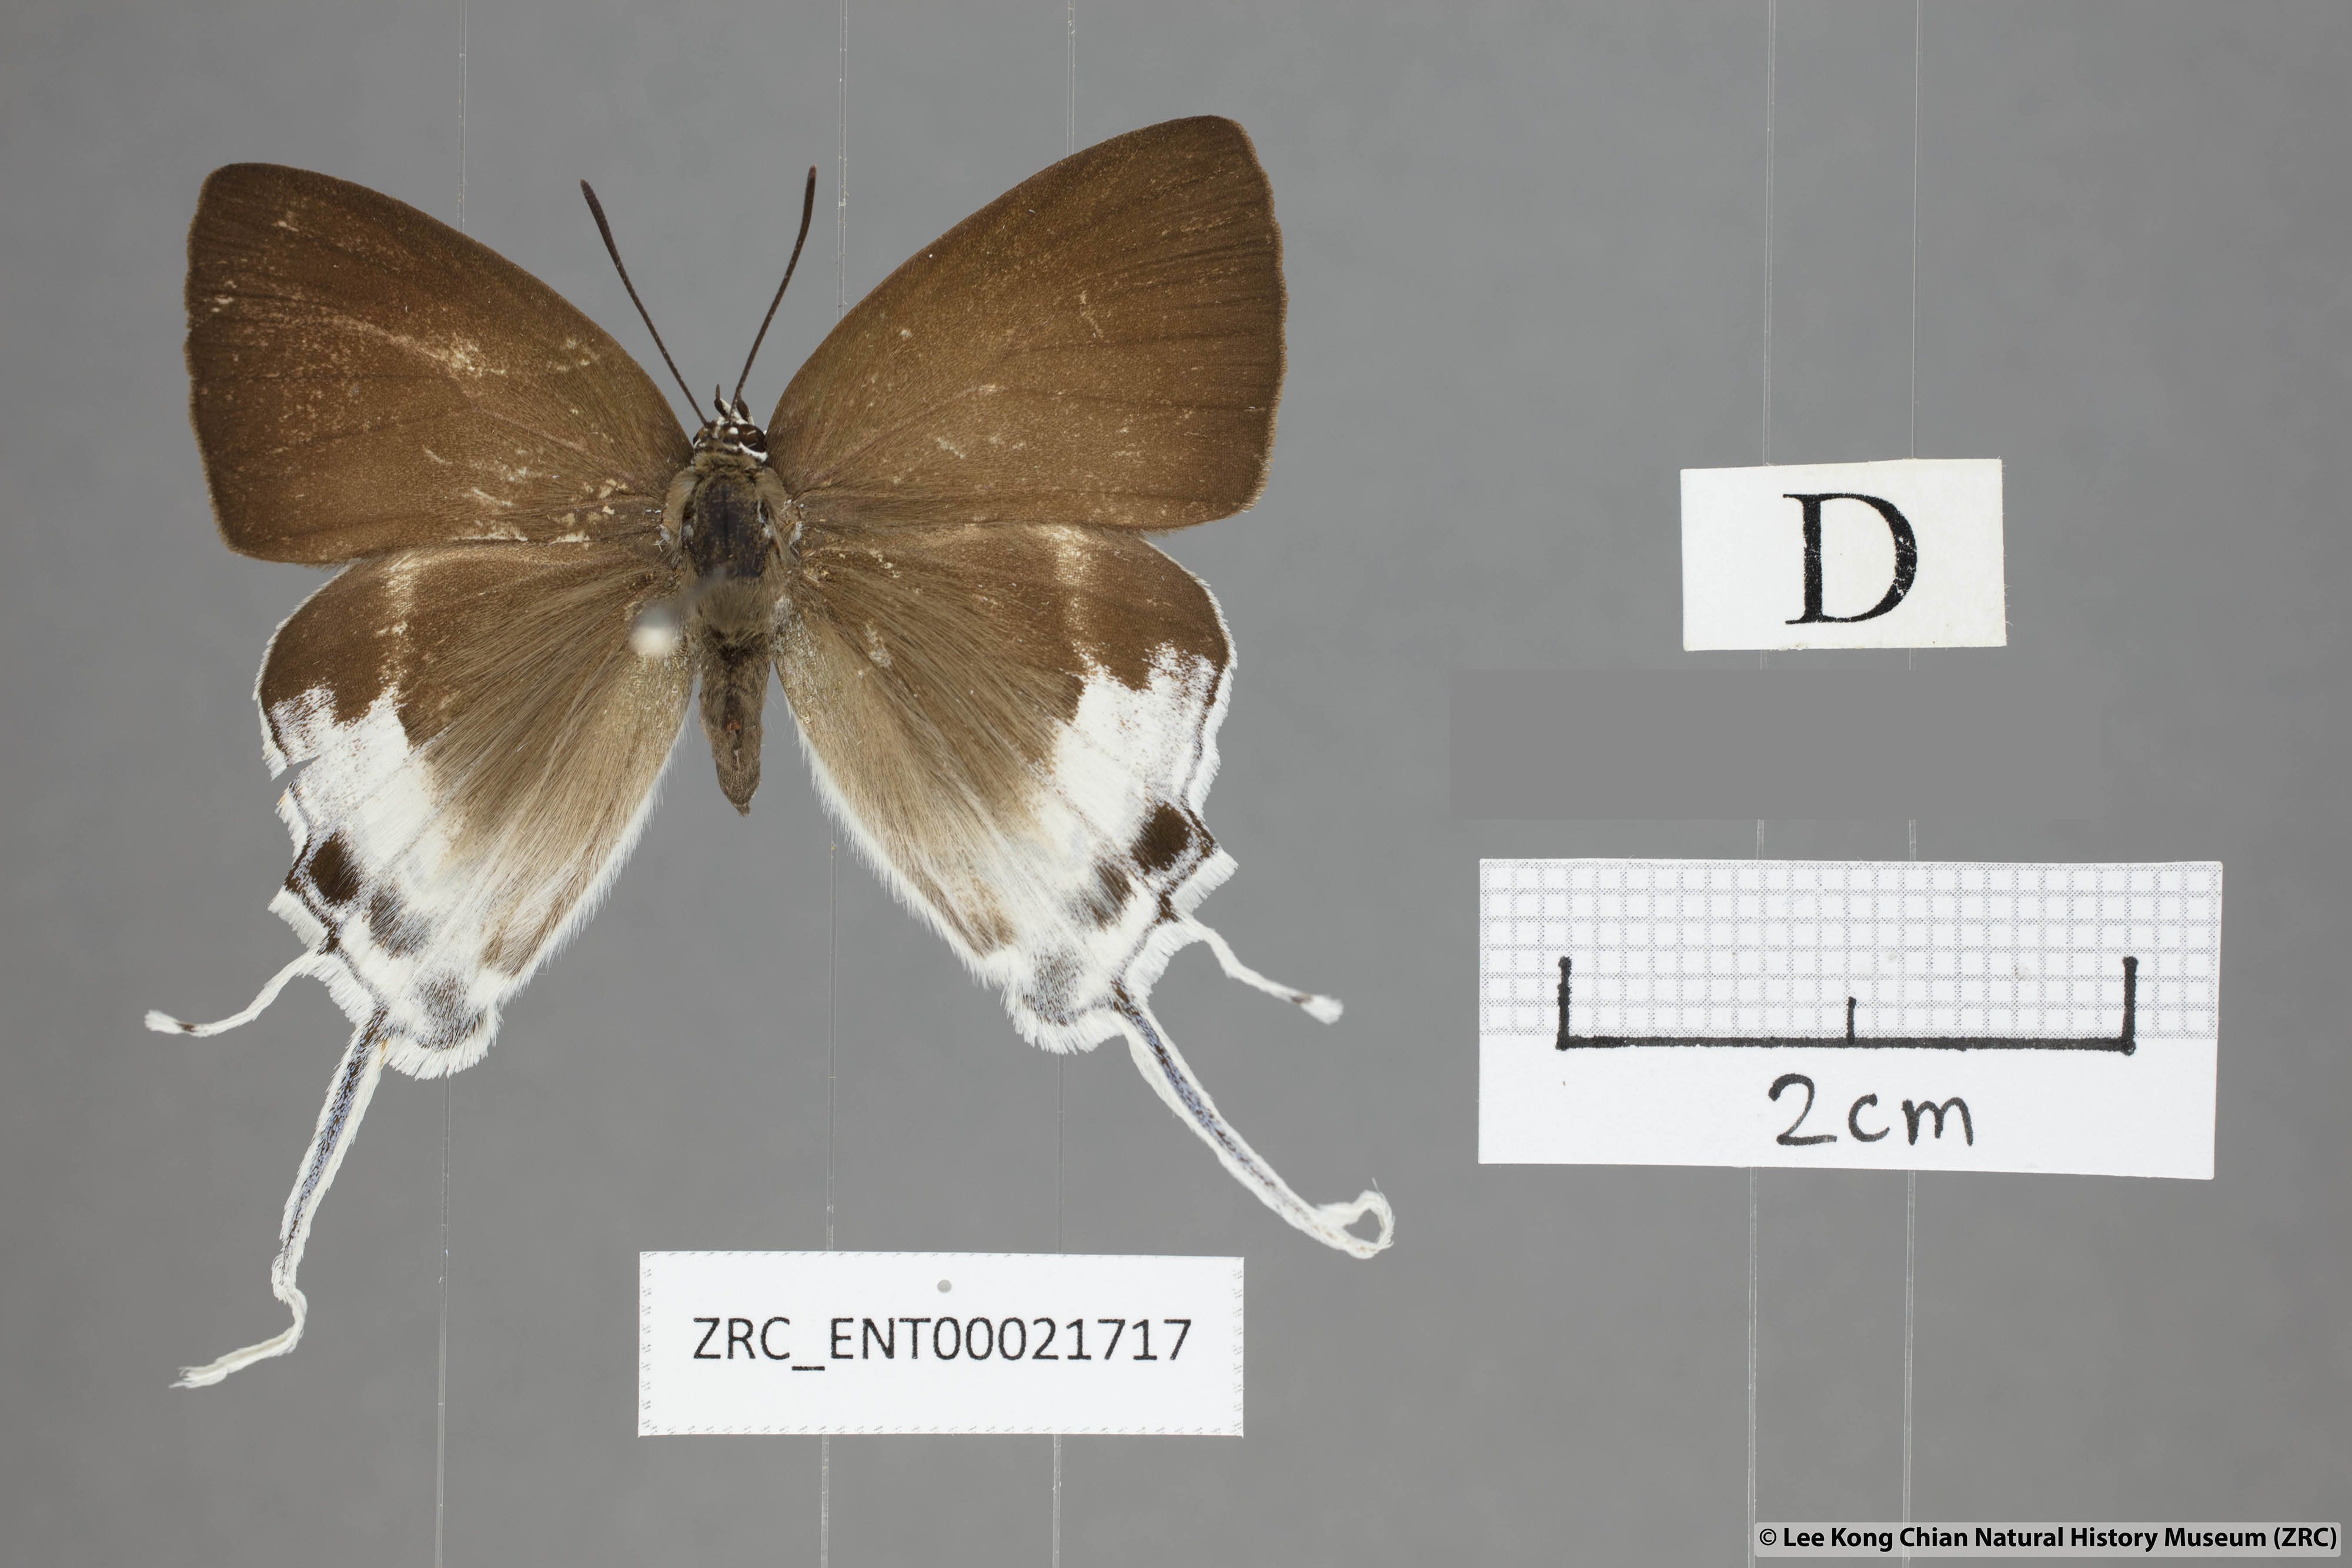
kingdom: Animalia
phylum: Arthropoda
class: Insecta
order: Lepidoptera
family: Lycaenidae
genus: Neocheritra
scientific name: Neocheritra
